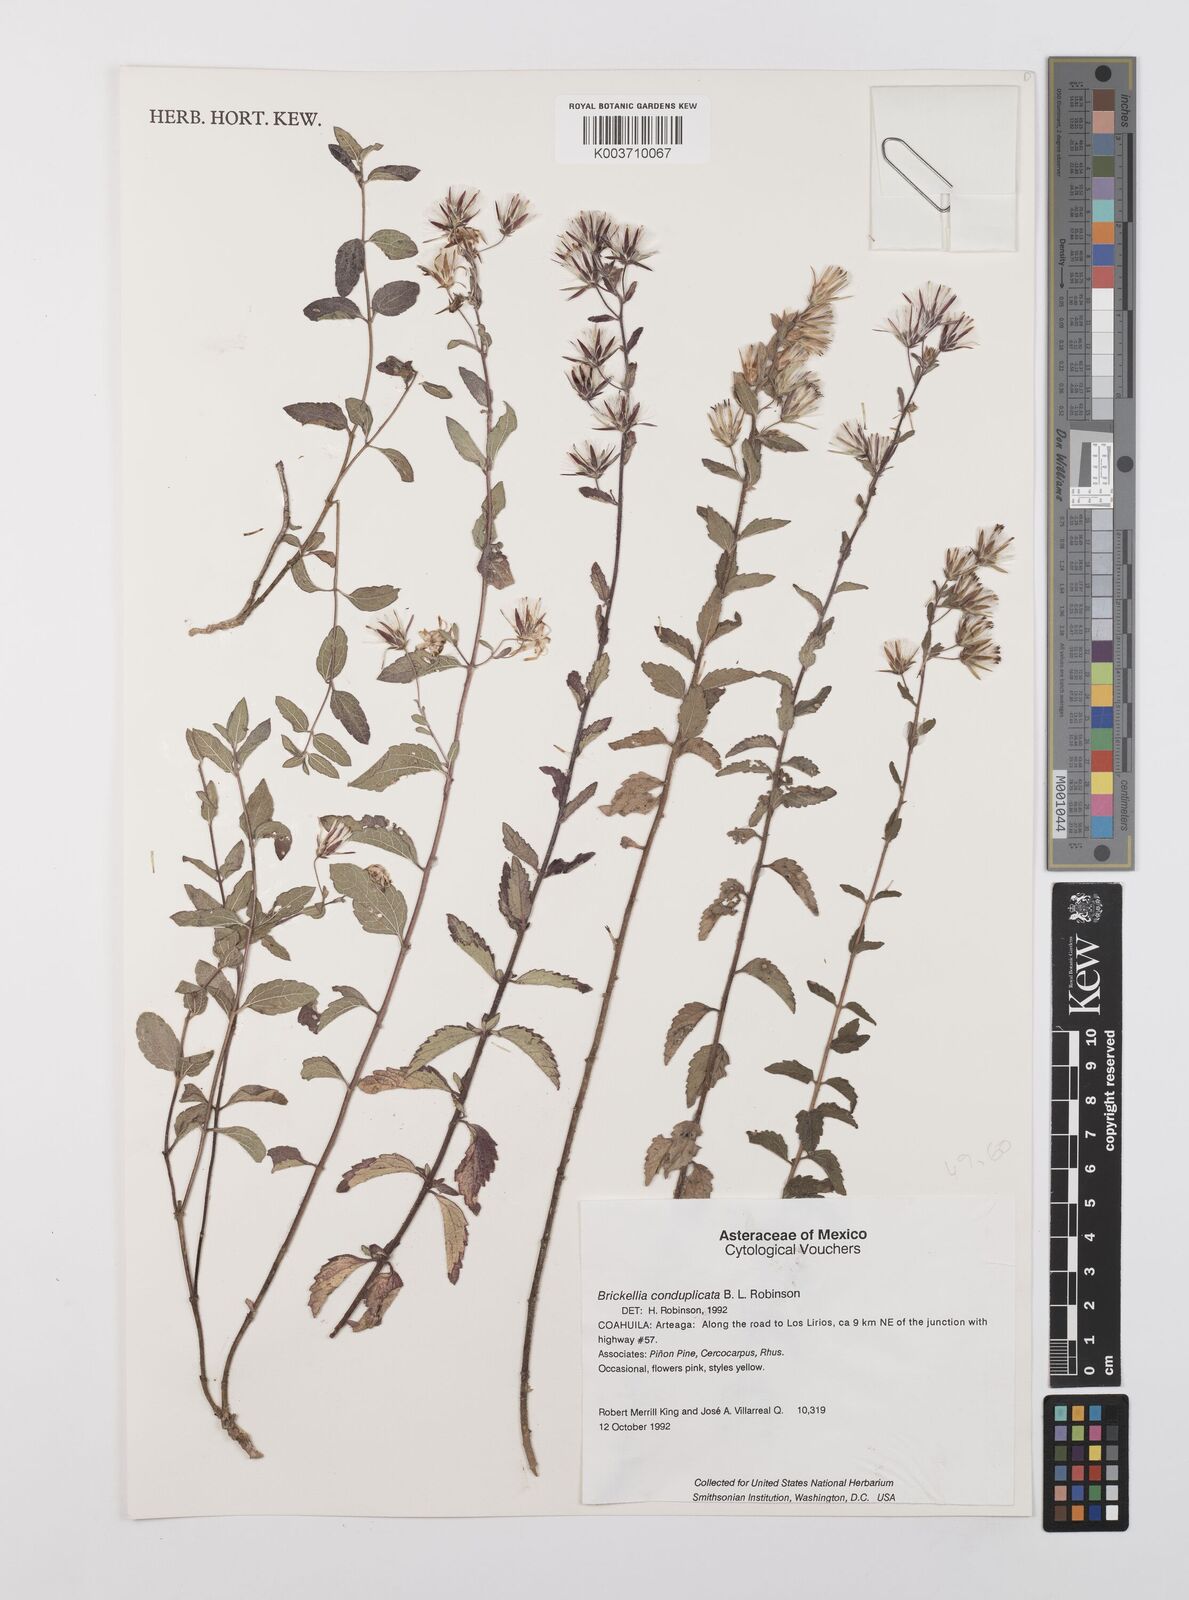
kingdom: Plantae
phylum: Tracheophyta
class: Magnoliopsida
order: Asterales
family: Asteraceae
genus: Brickellia
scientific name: Brickellia lemmonii
